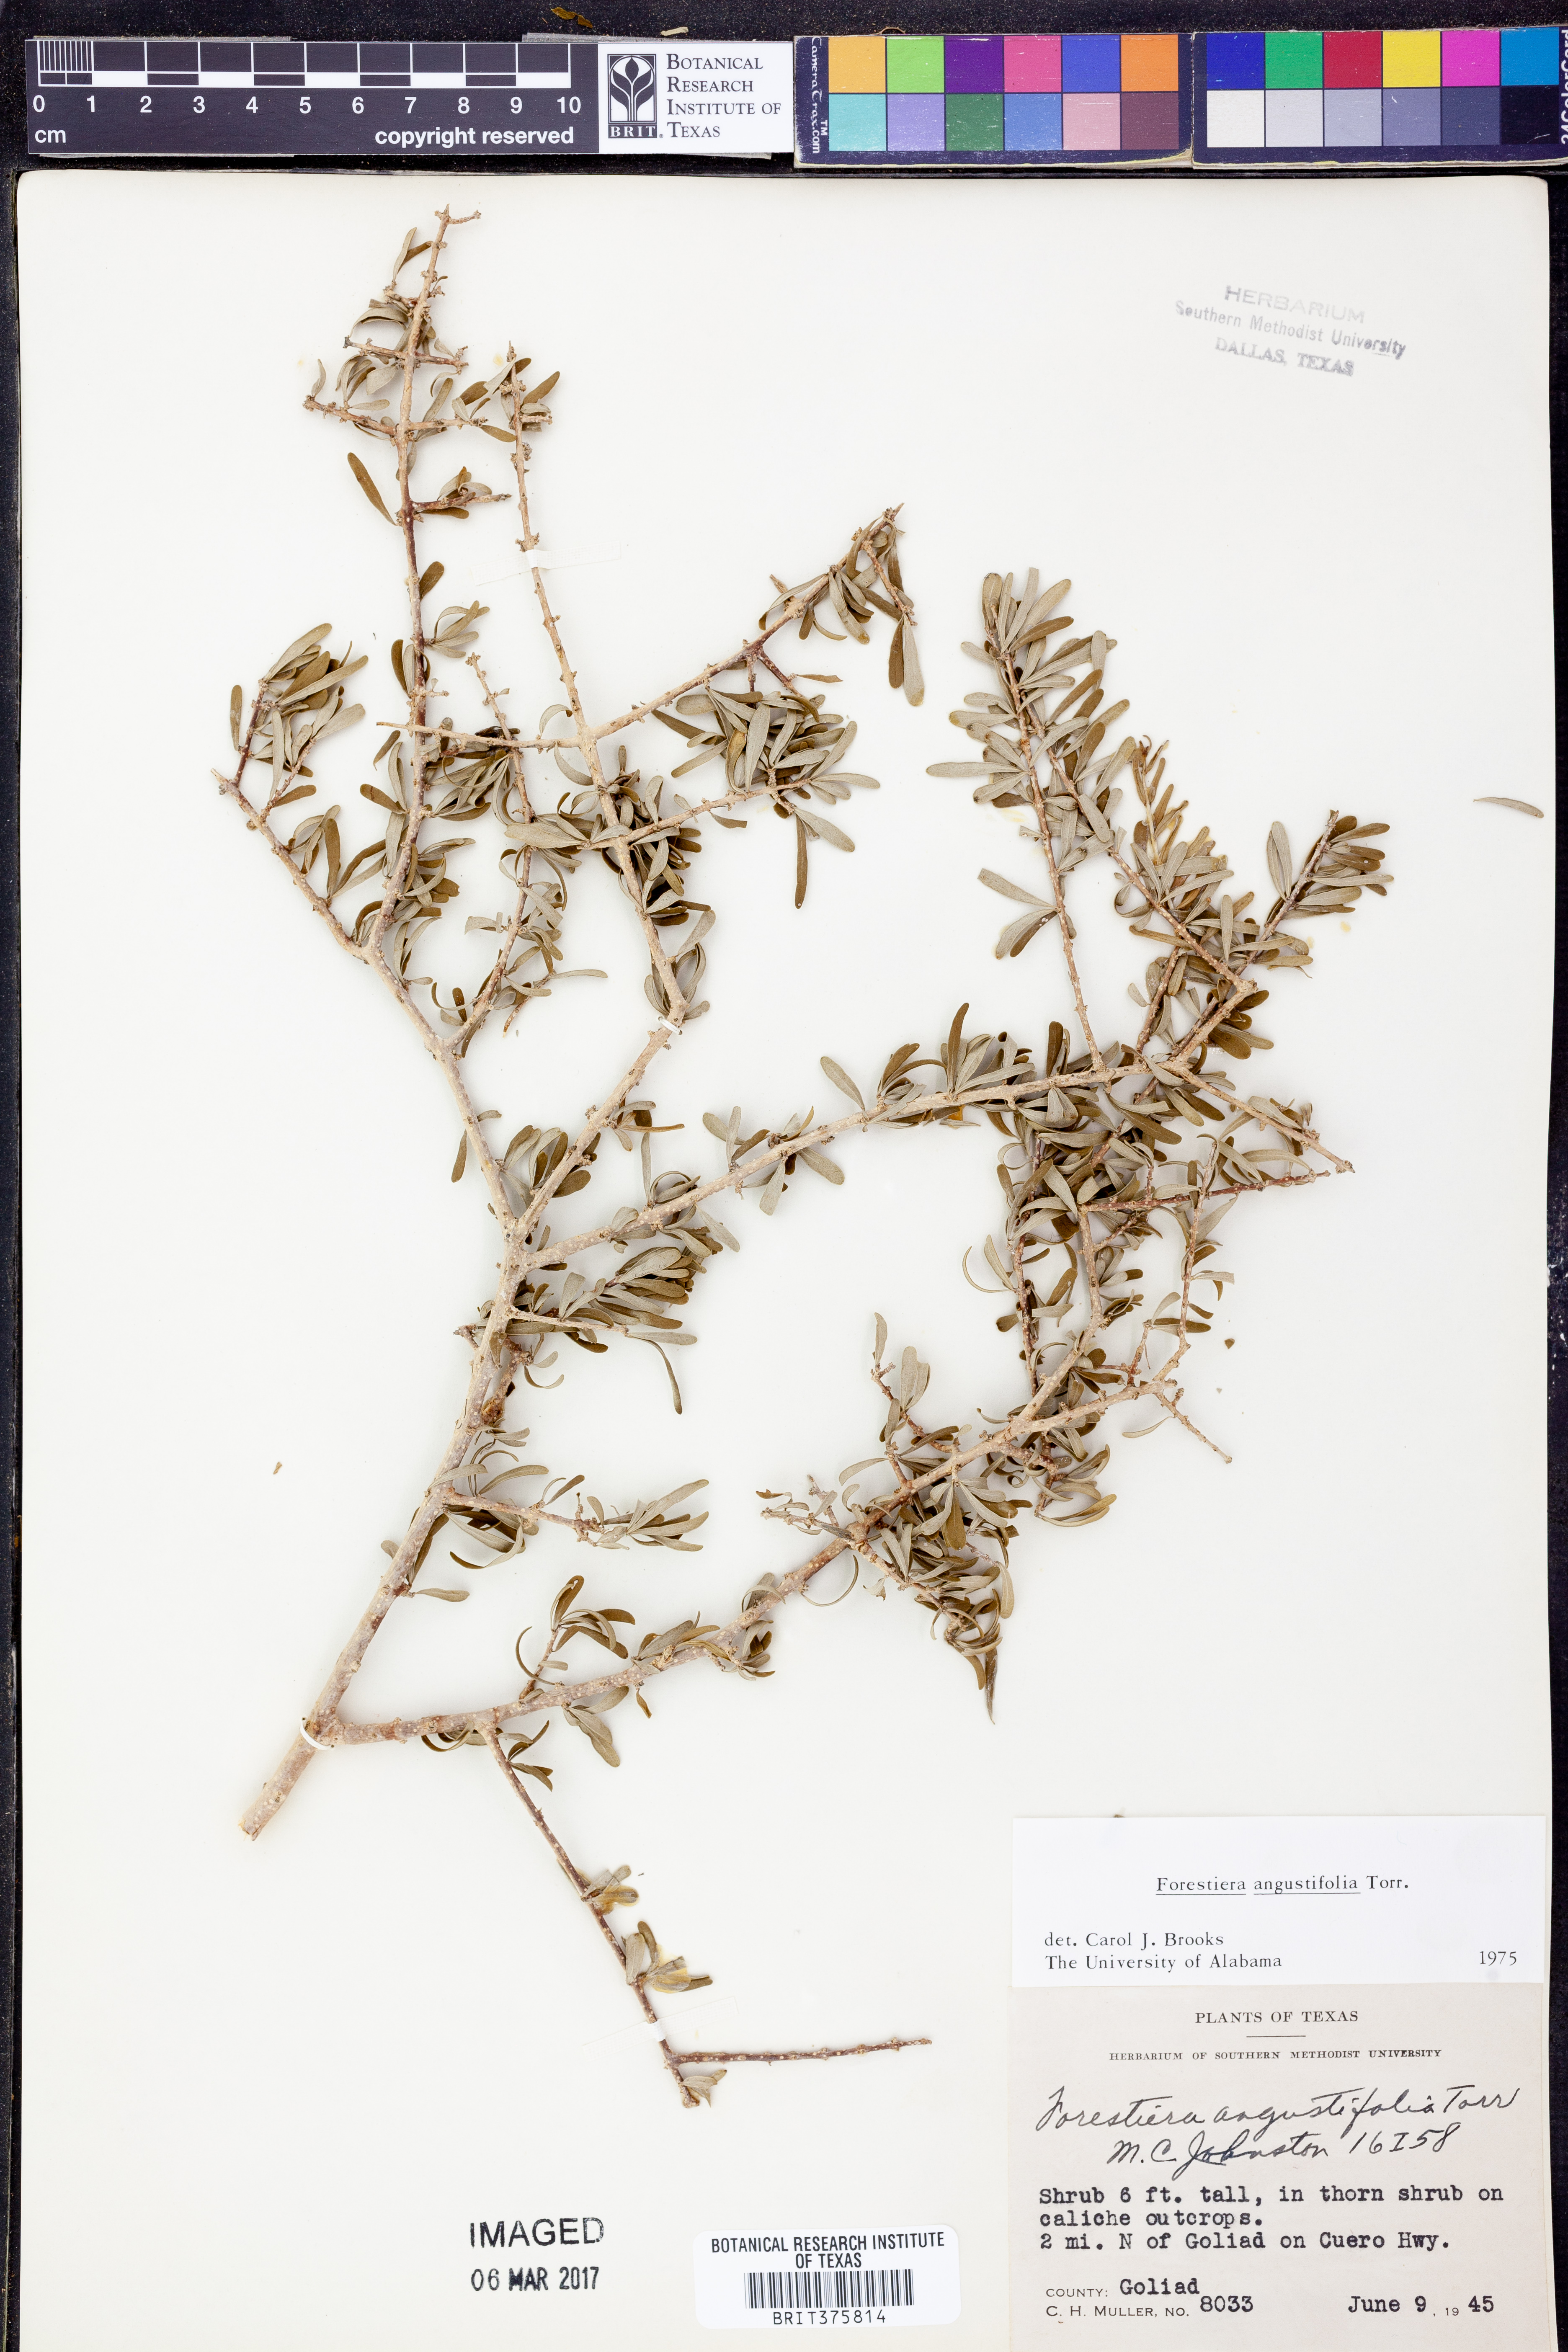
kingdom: Plantae
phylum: Tracheophyta
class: Magnoliopsida
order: Lamiales
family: Oleaceae
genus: Forestiera
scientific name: Forestiera angustifolia
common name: Elbowbush
